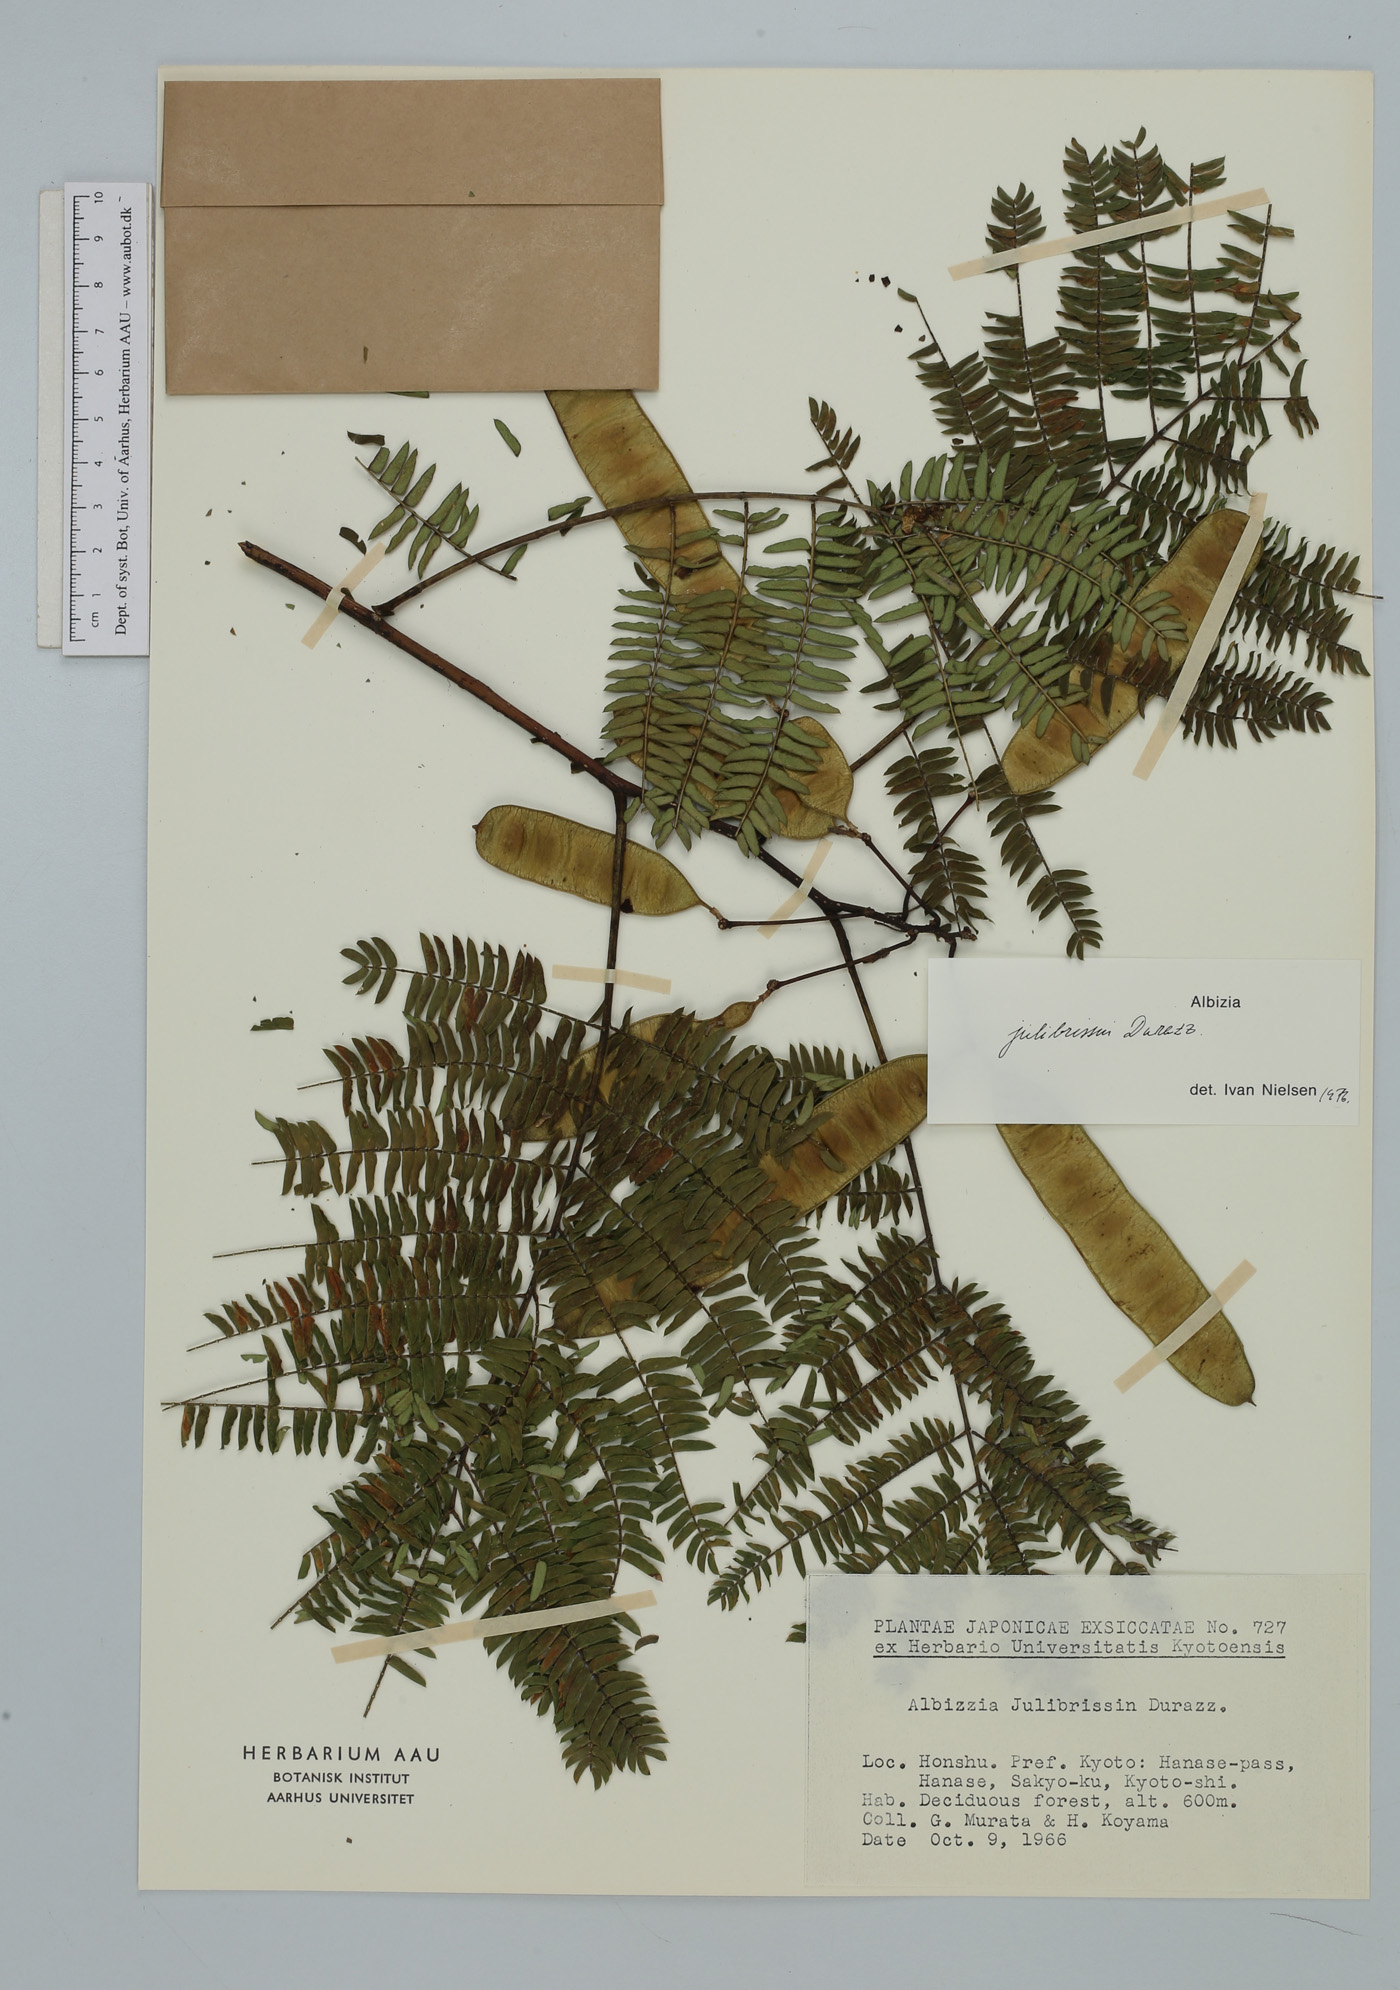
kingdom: Plantae
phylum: Tracheophyta
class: Magnoliopsida
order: Fabales
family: Fabaceae
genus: Albizia
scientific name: Albizia julibrissin
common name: Silktree
